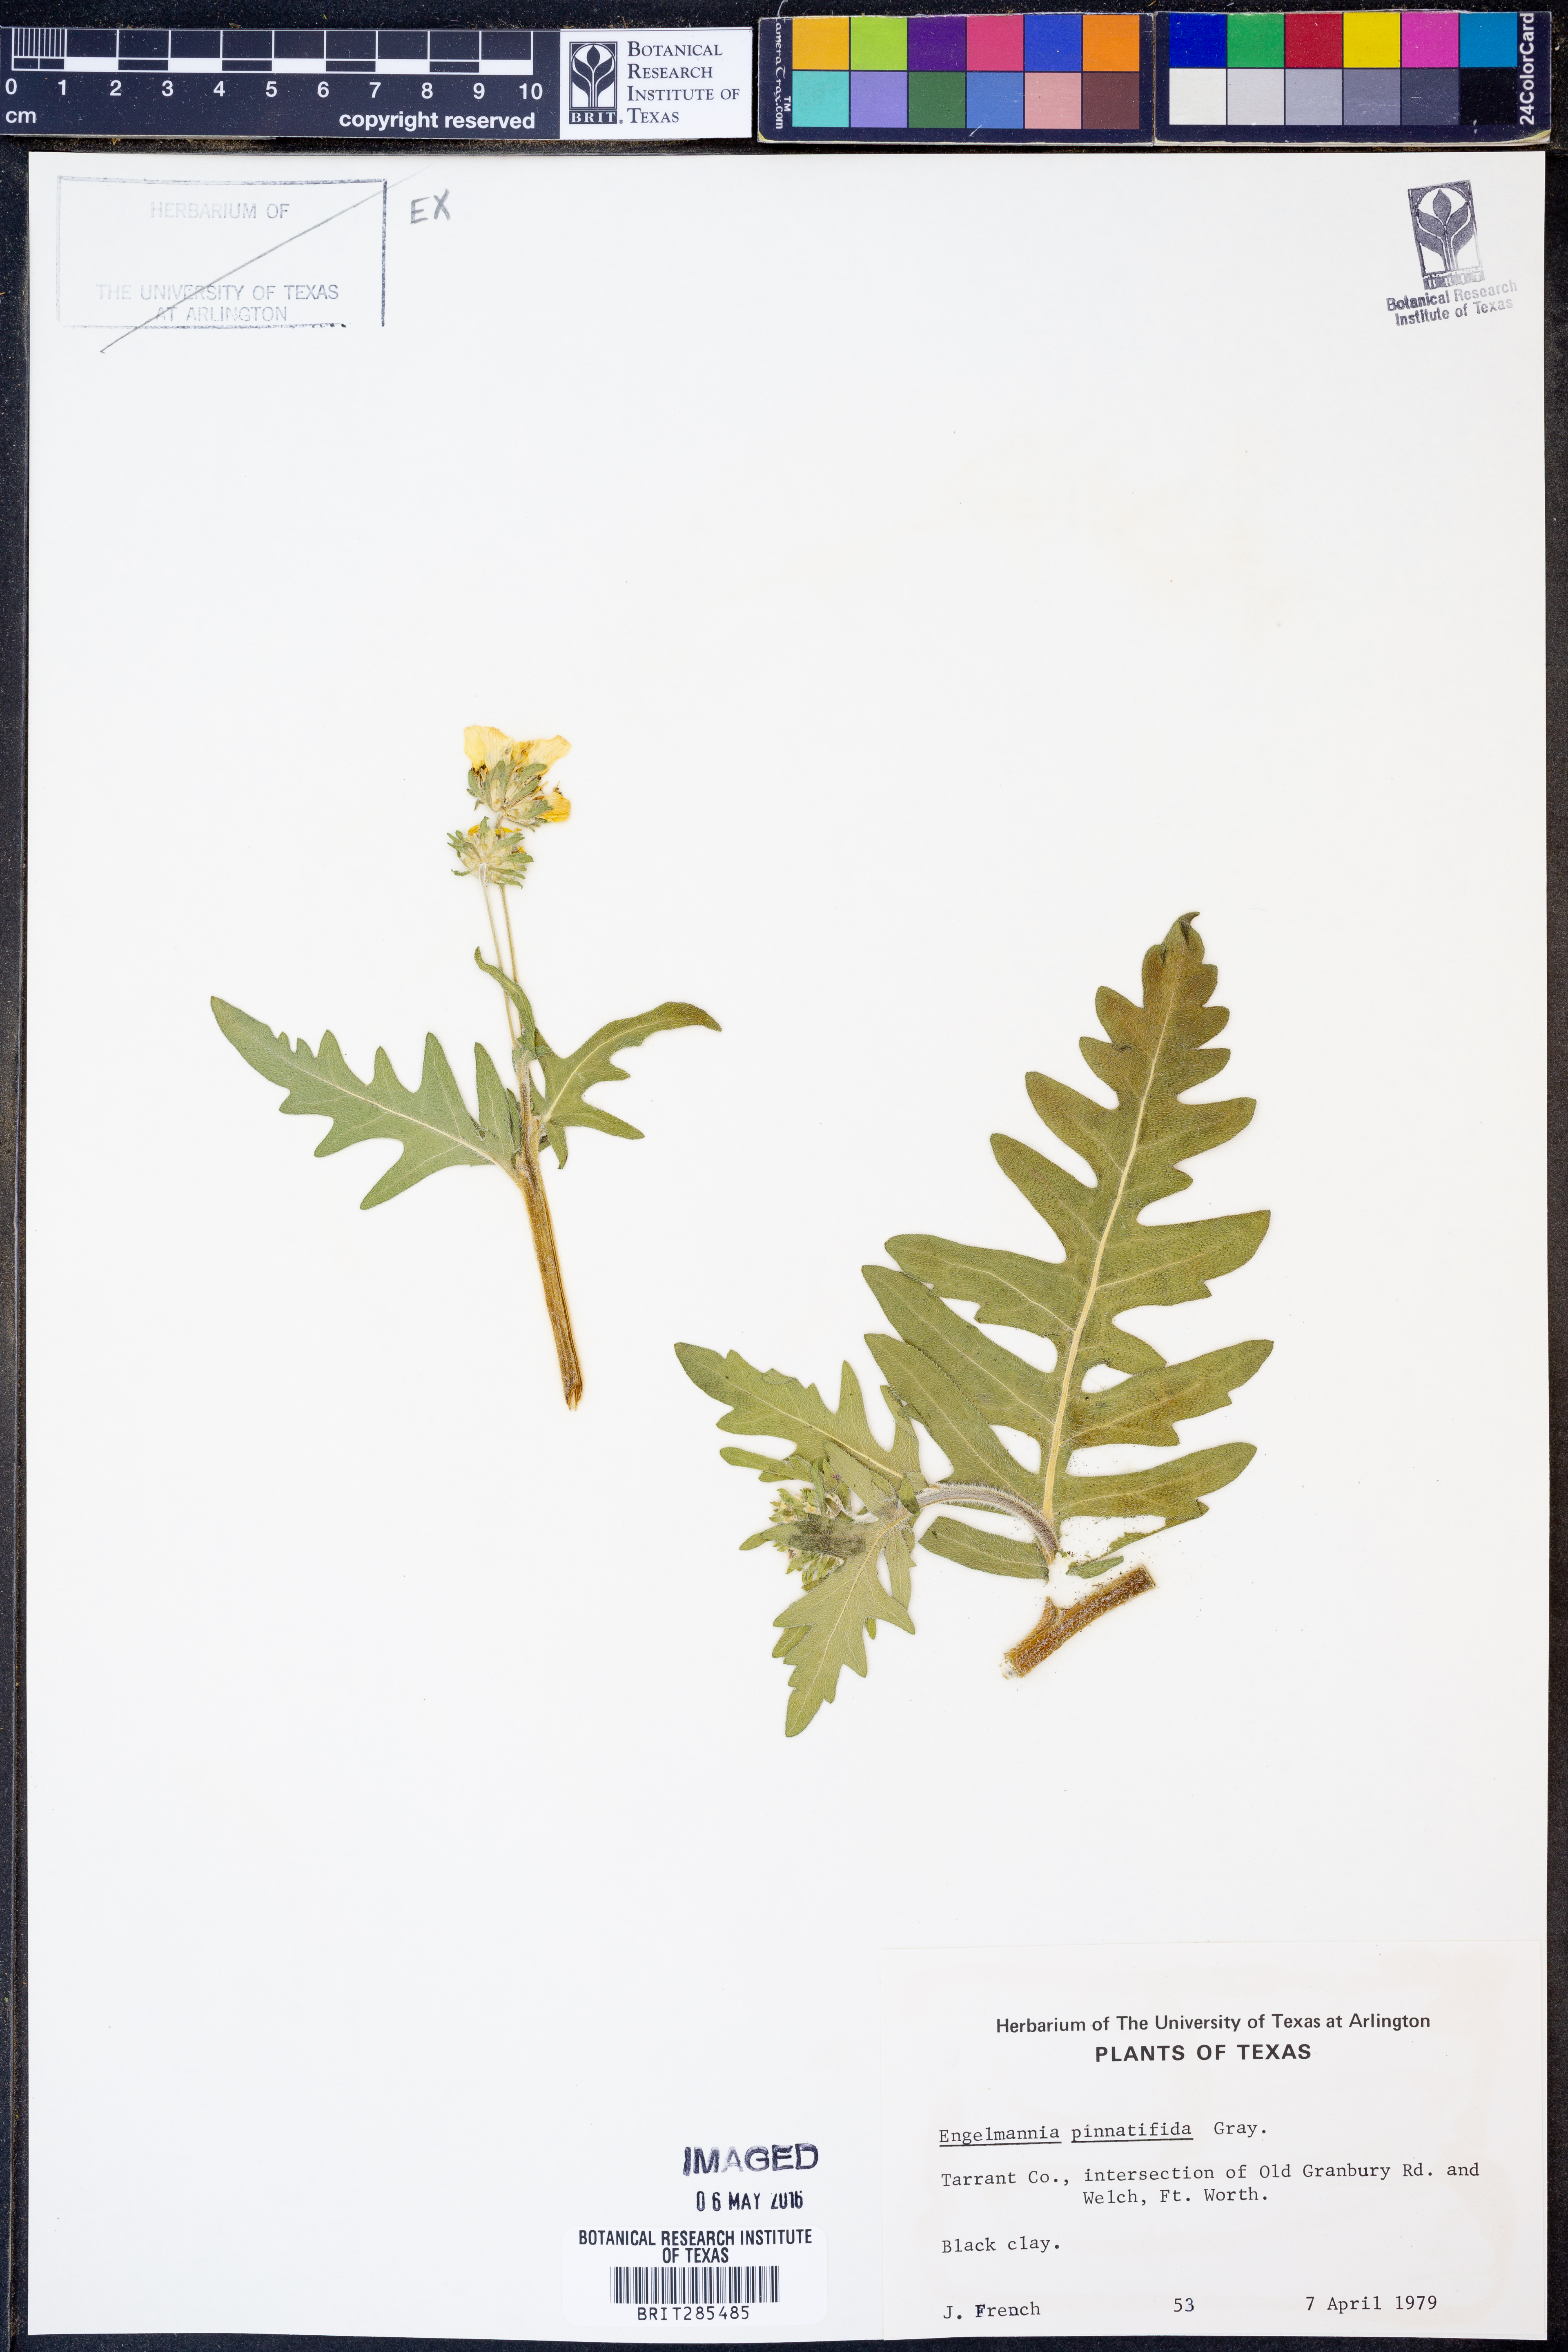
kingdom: Plantae
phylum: Tracheophyta
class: Magnoliopsida
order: Asterales
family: Asteraceae
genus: Engelmannia
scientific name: Engelmannia peristenia
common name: Engelmann's daisy
